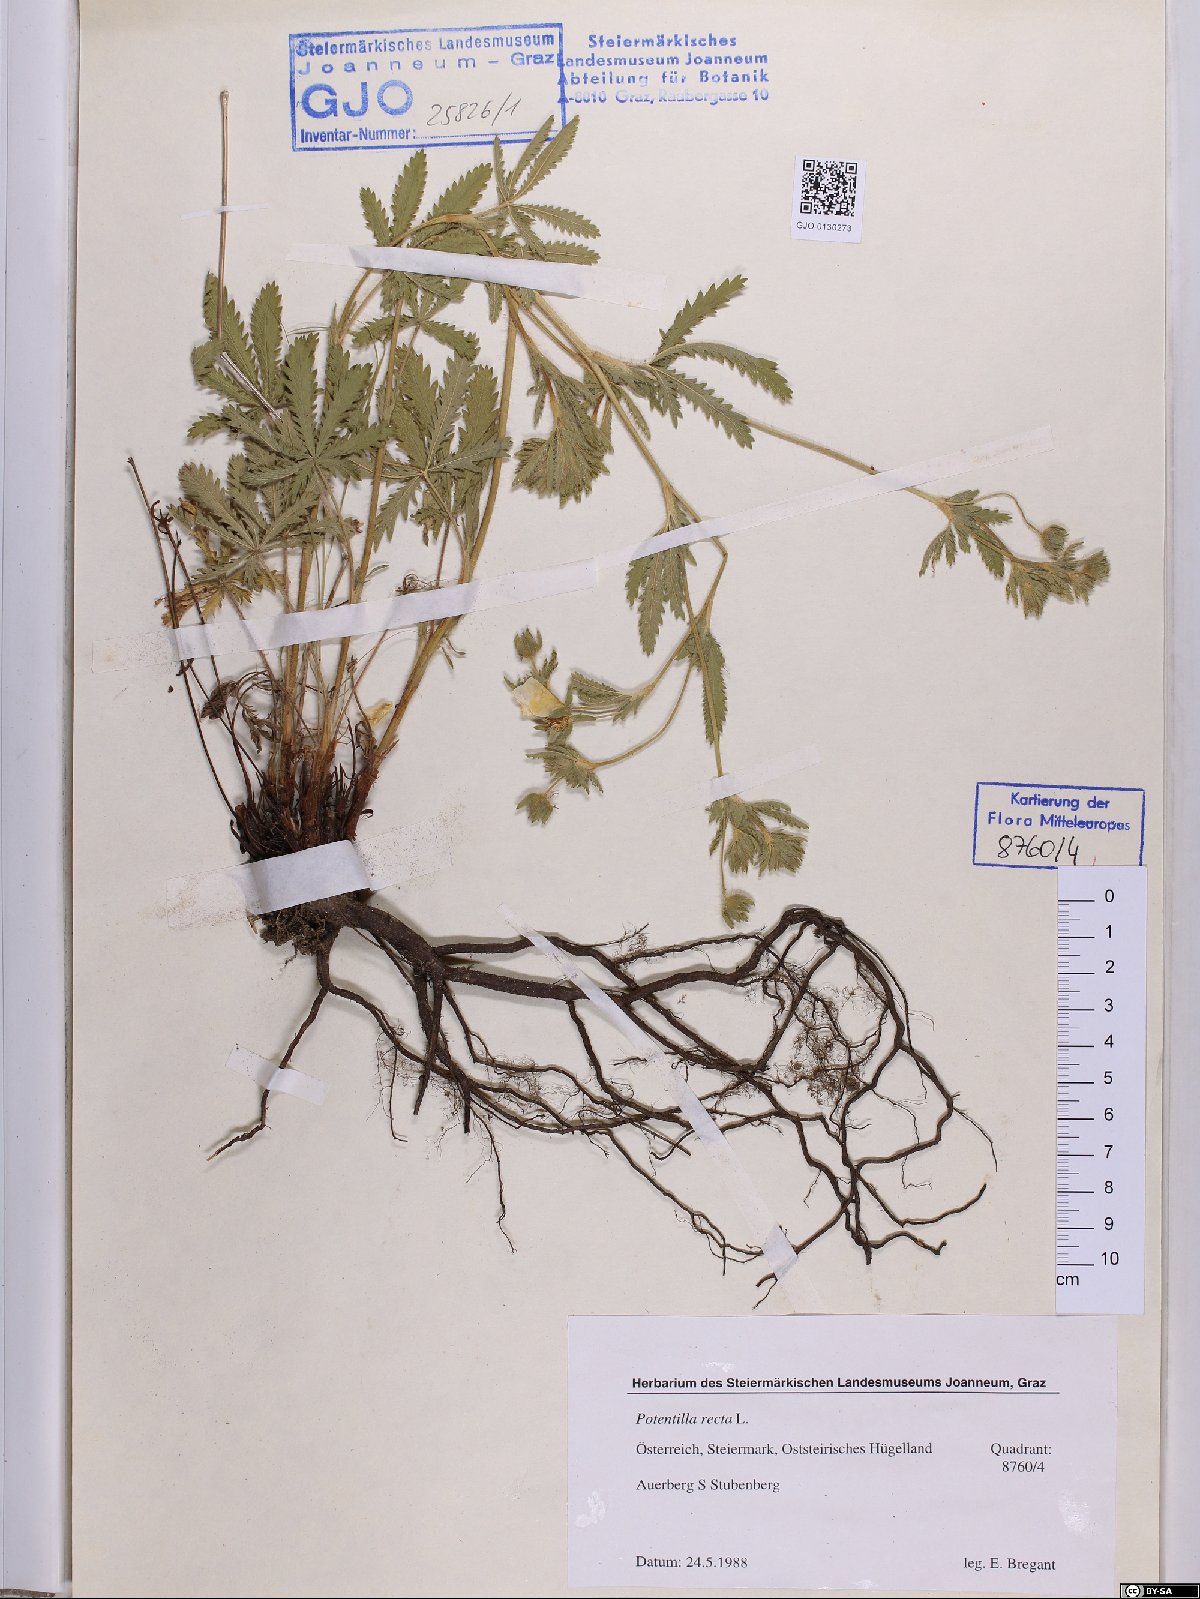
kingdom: Plantae
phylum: Tracheophyta
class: Magnoliopsida
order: Rosales
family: Rosaceae
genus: Potentilla
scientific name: Potentilla recta
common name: Sulphur cinquefoil
